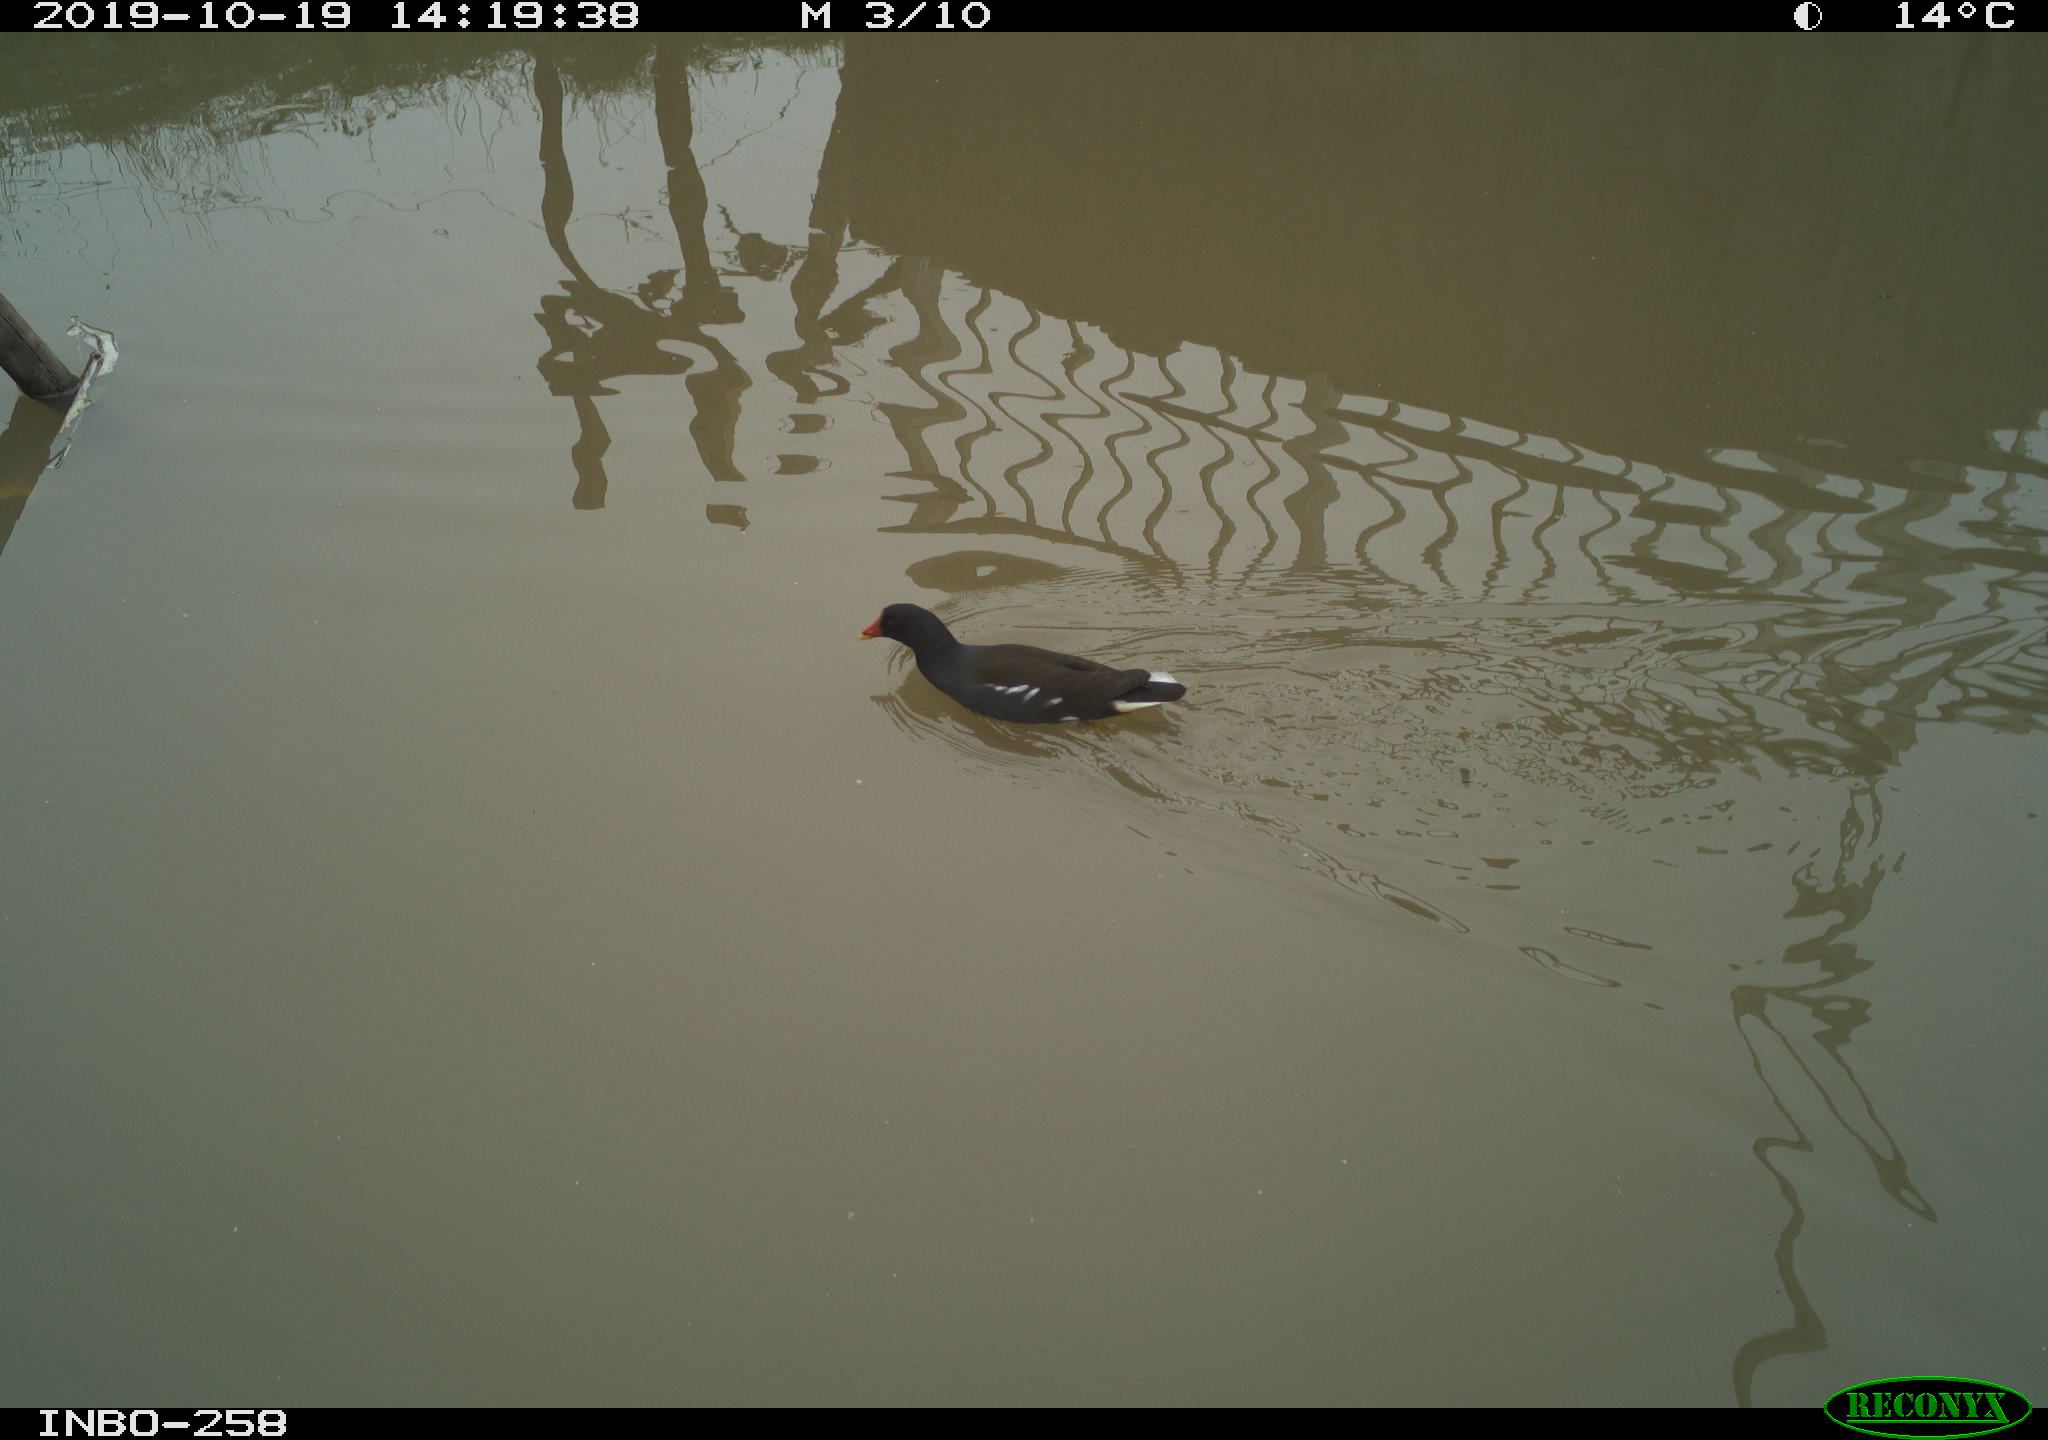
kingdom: Animalia
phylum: Chordata
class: Aves
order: Gruiformes
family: Rallidae
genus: Gallinula
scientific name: Gallinula chloropus
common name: Common moorhen
